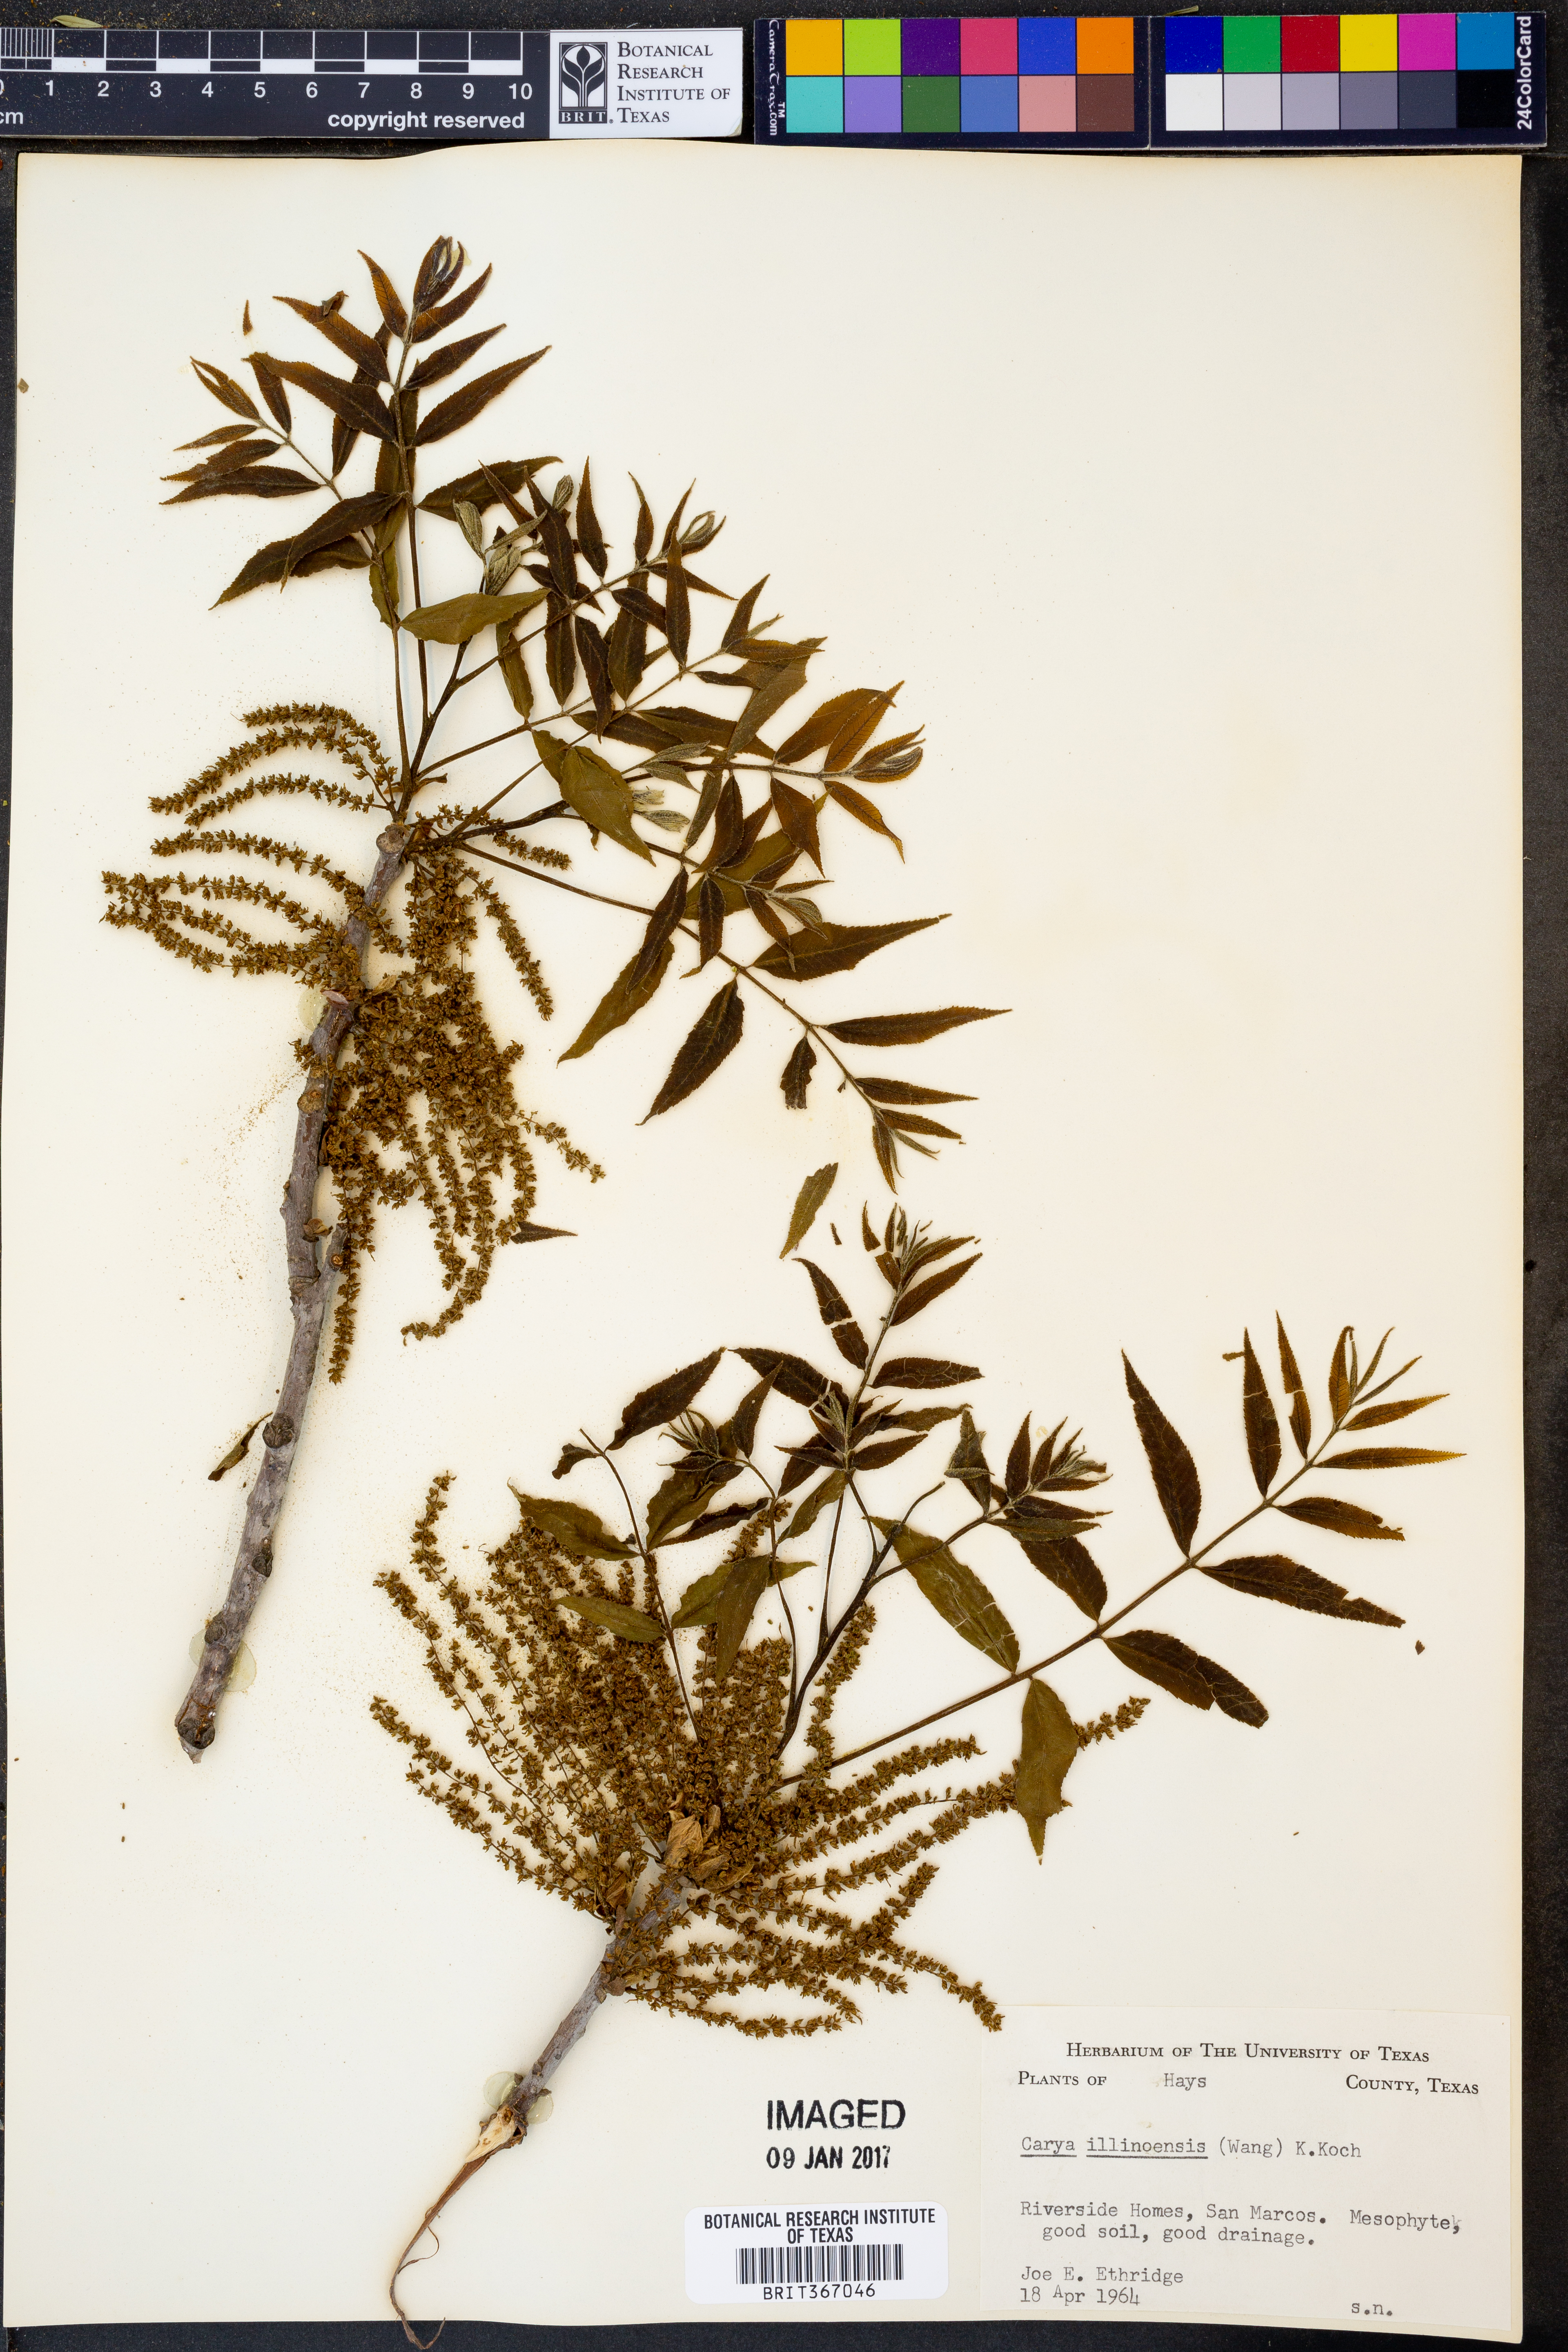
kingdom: Plantae
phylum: Tracheophyta
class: Magnoliopsida
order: Fagales
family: Juglandaceae
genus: Carya
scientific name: Carya illinoinensis
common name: Pecan
